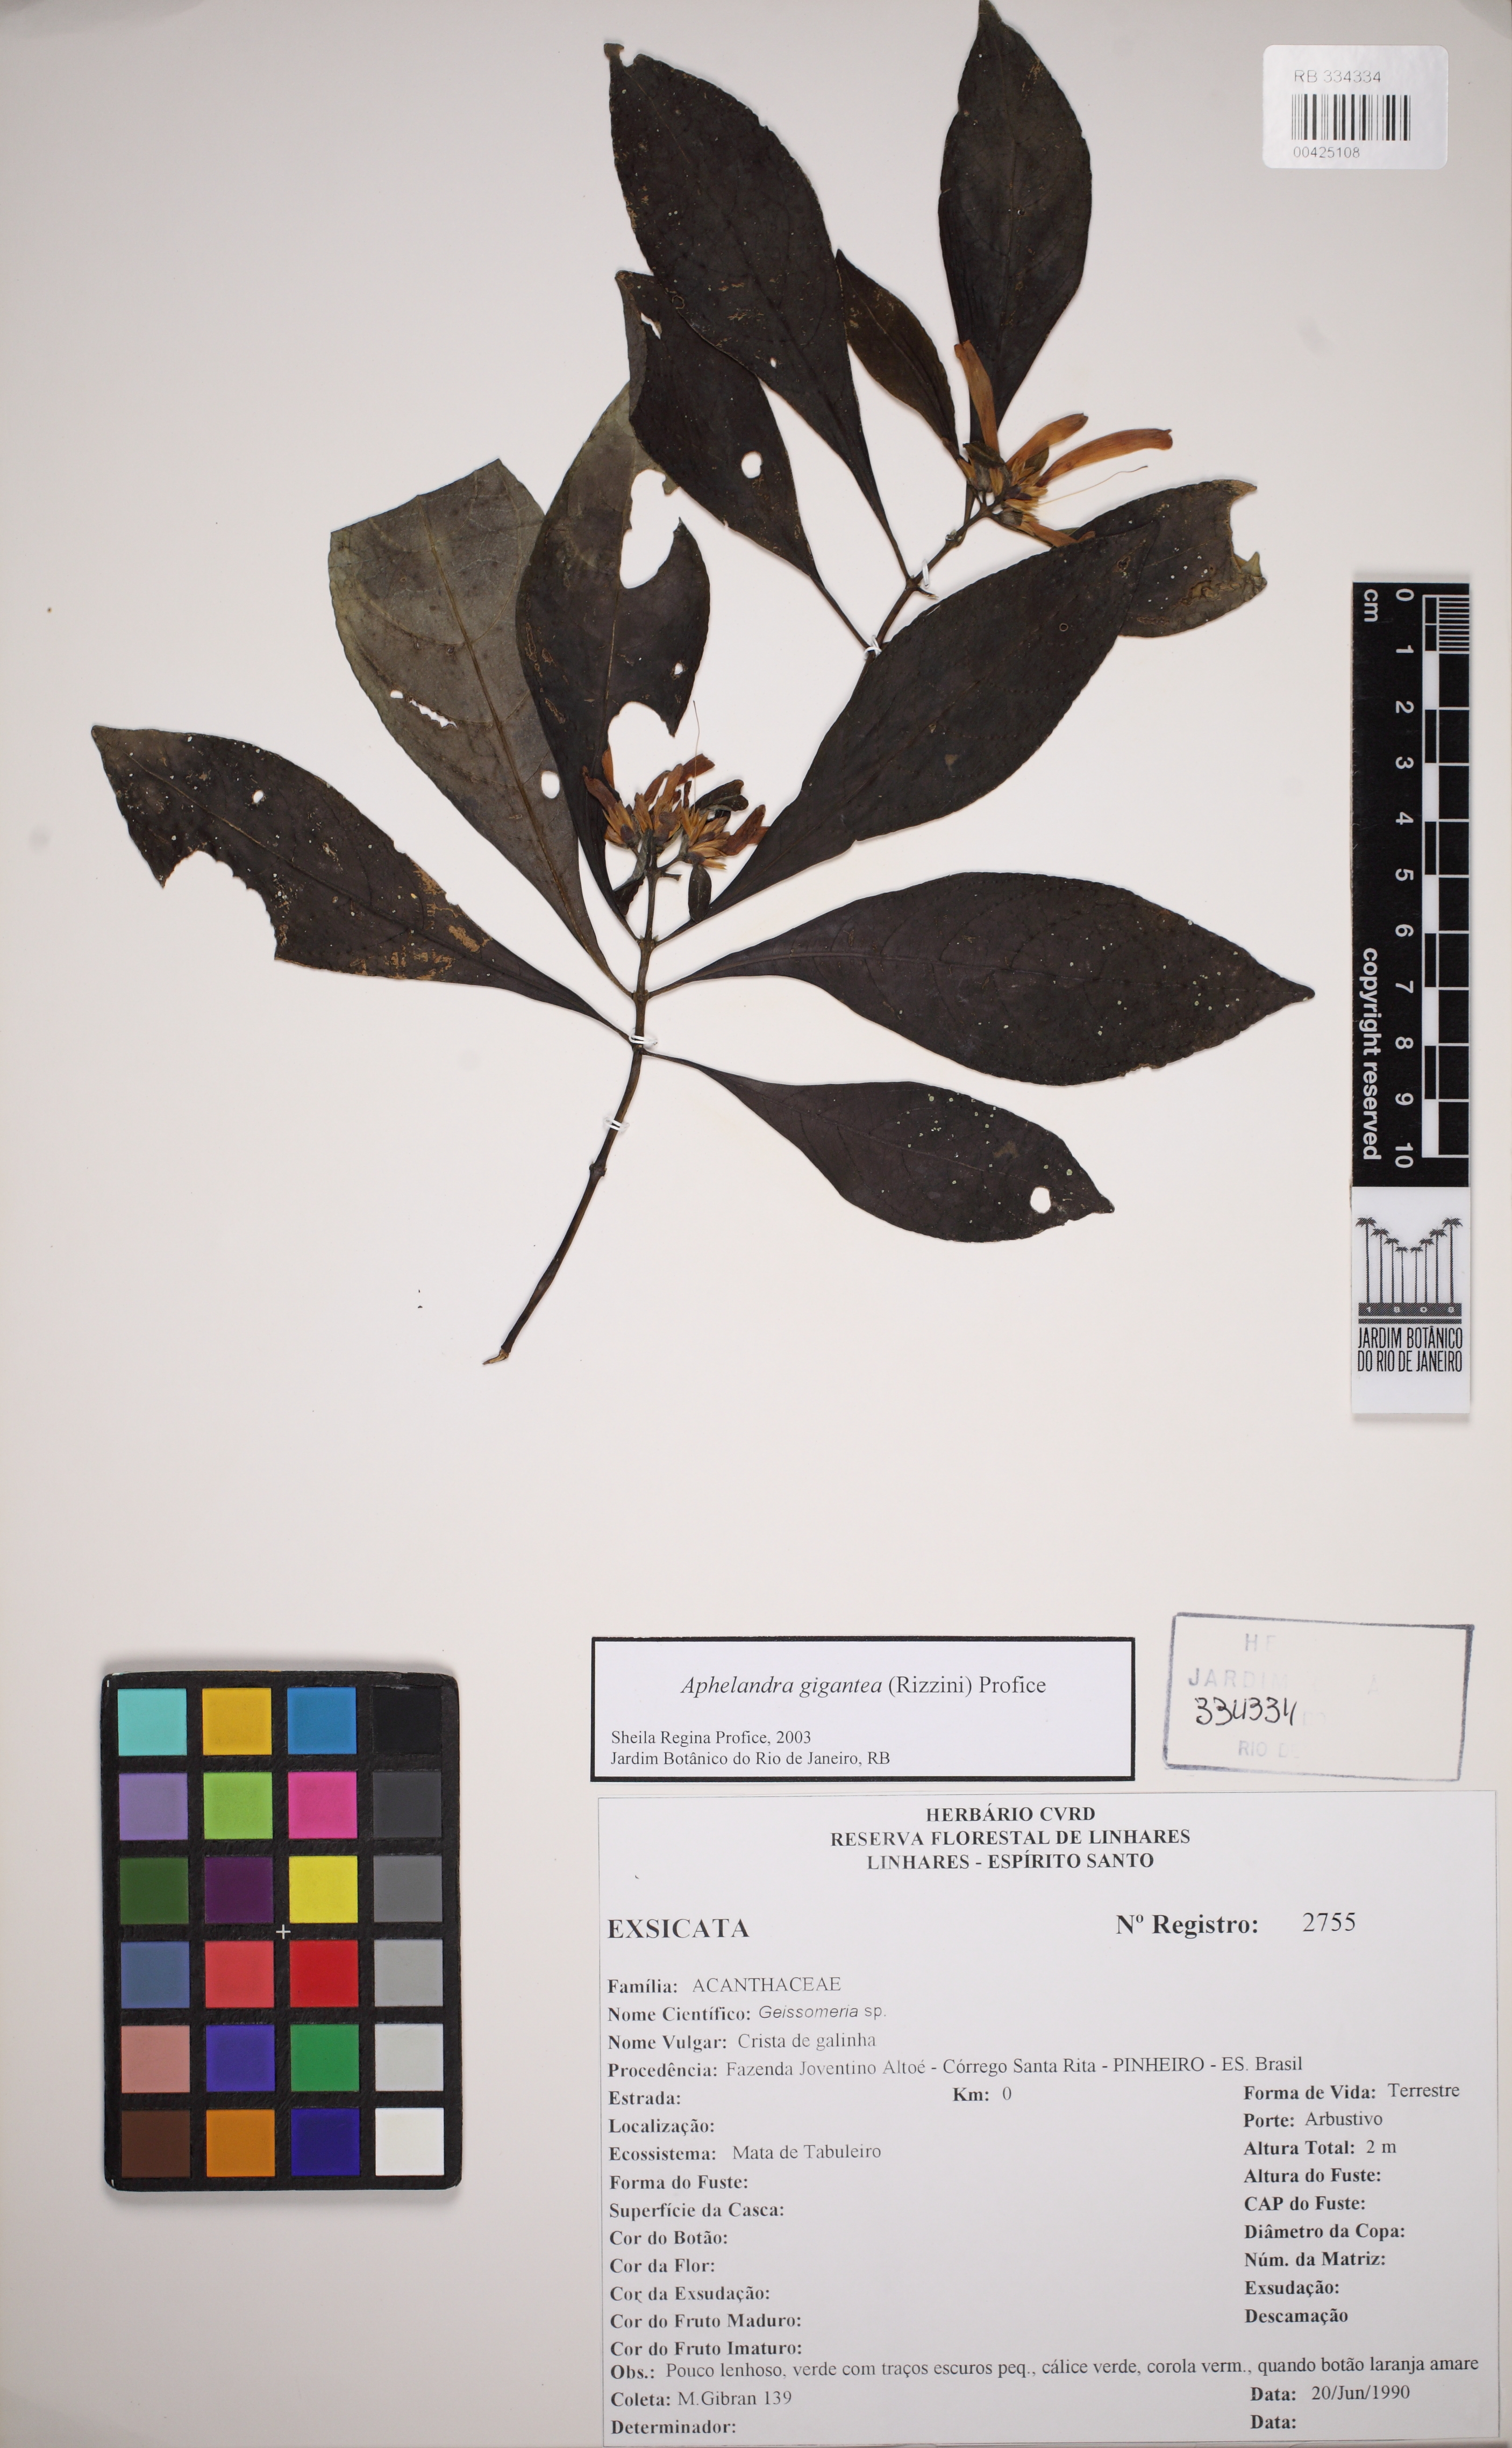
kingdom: Plantae
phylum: Tracheophyta
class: Magnoliopsida
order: Lamiales
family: Acanthaceae
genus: Aphelandra
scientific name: Aphelandra gigantea
